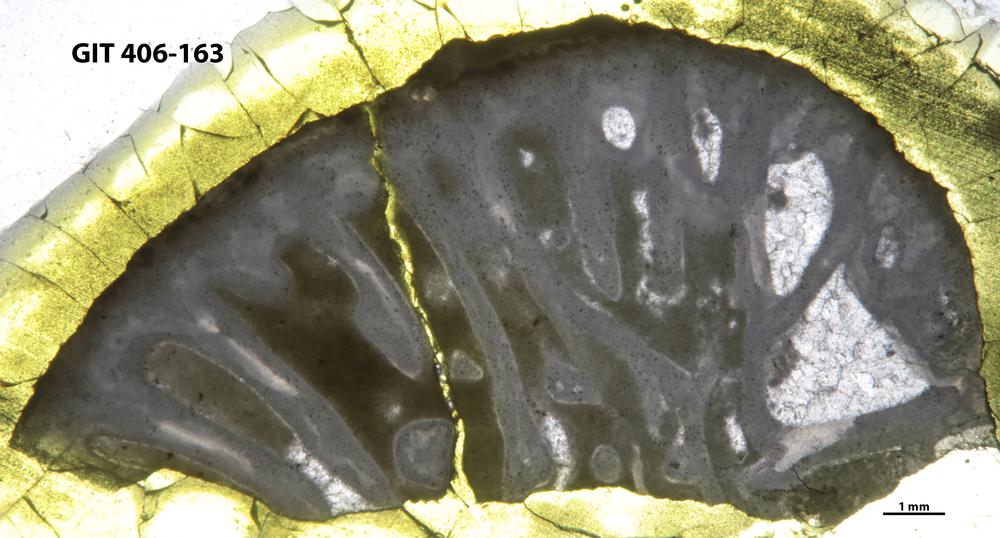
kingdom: Animalia
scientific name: Animalia
